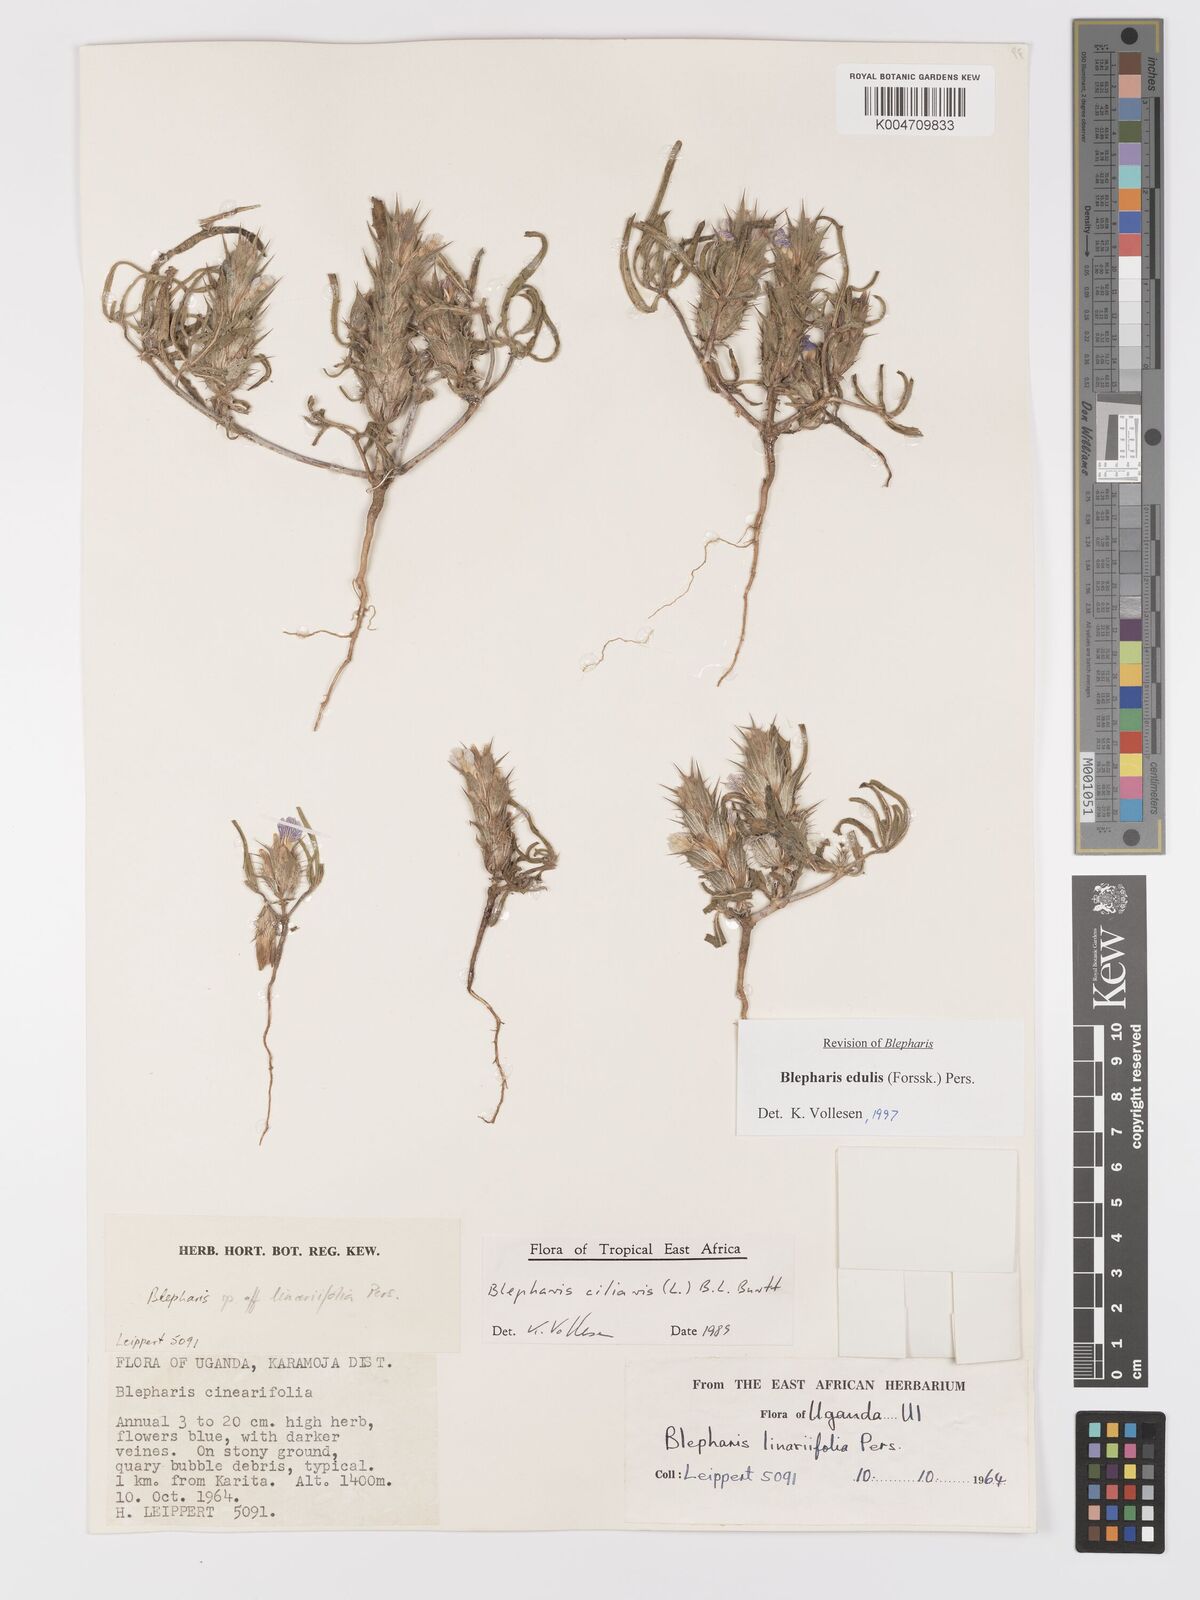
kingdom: Plantae
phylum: Tracheophyta
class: Magnoliopsida
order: Lamiales
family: Acanthaceae
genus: Blepharis
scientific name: Blepharis edulis
